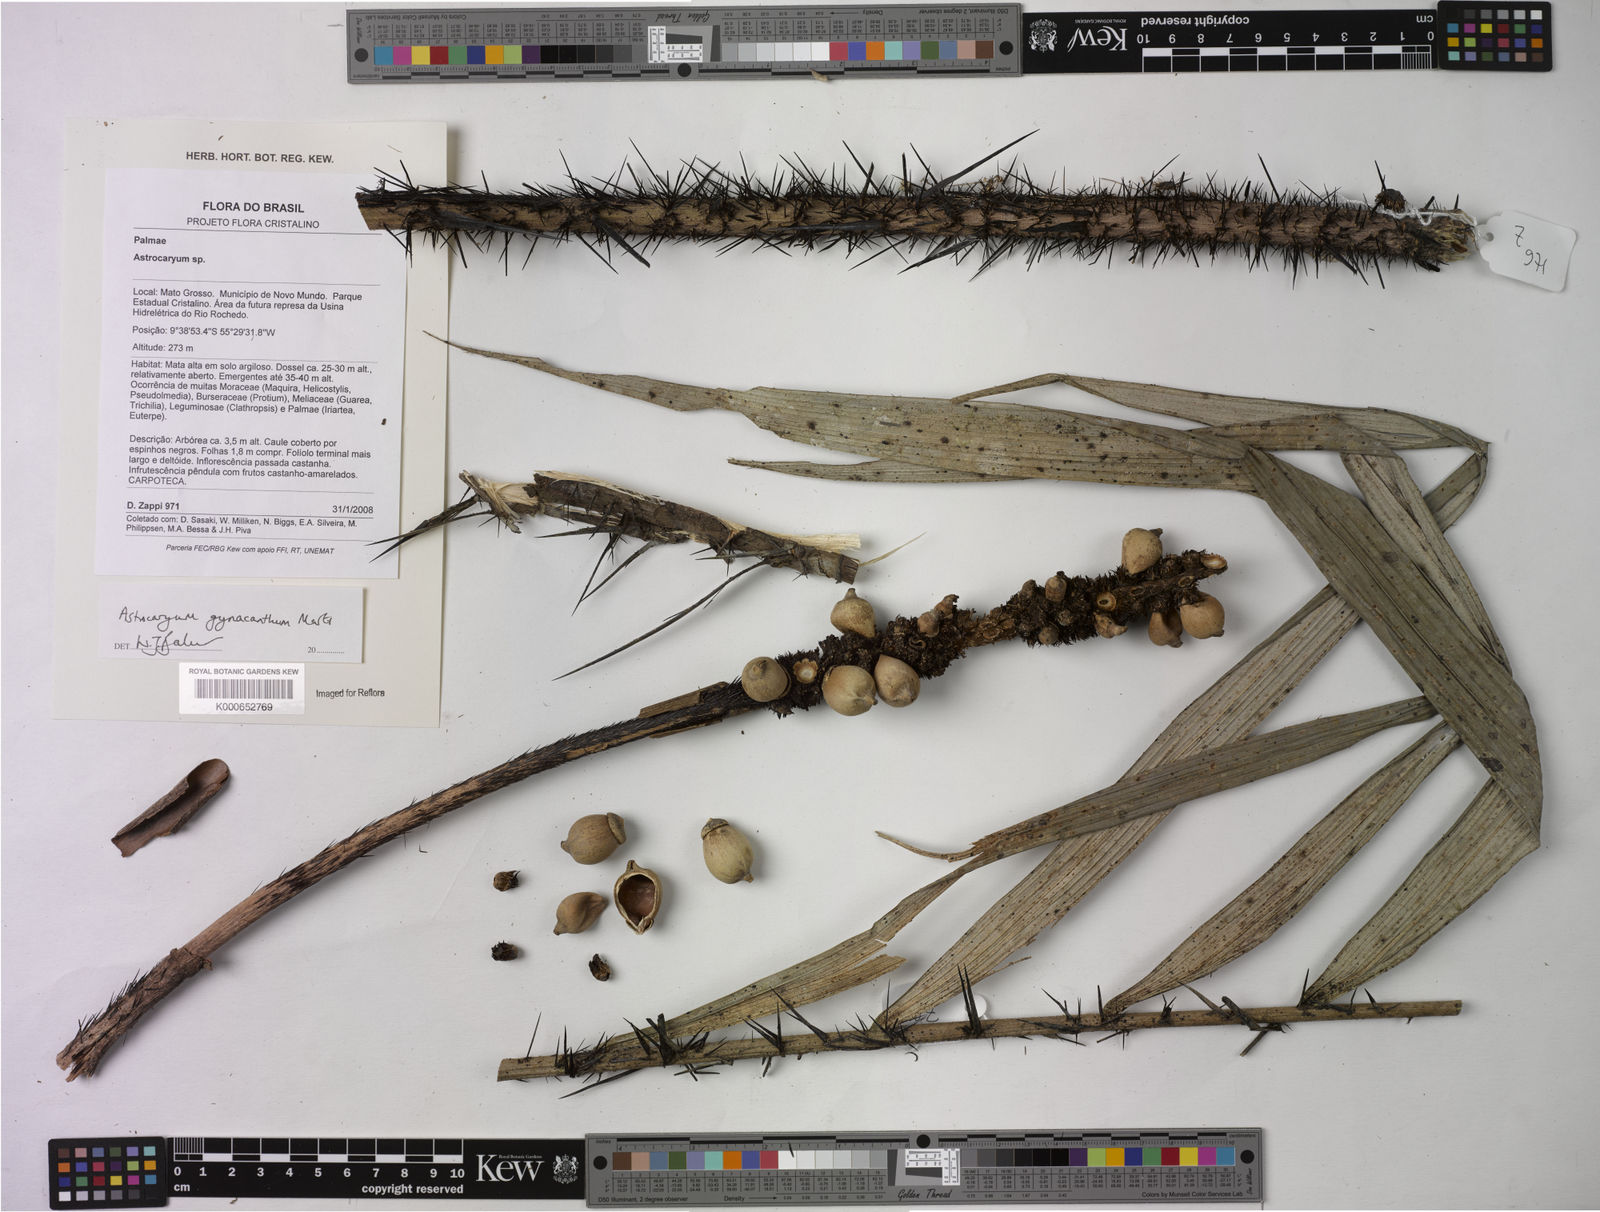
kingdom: Plantae
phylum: Tracheophyta
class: Liliopsida
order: Arecales
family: Arecaceae
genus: Astrocaryum
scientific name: Astrocaryum aculeatum
